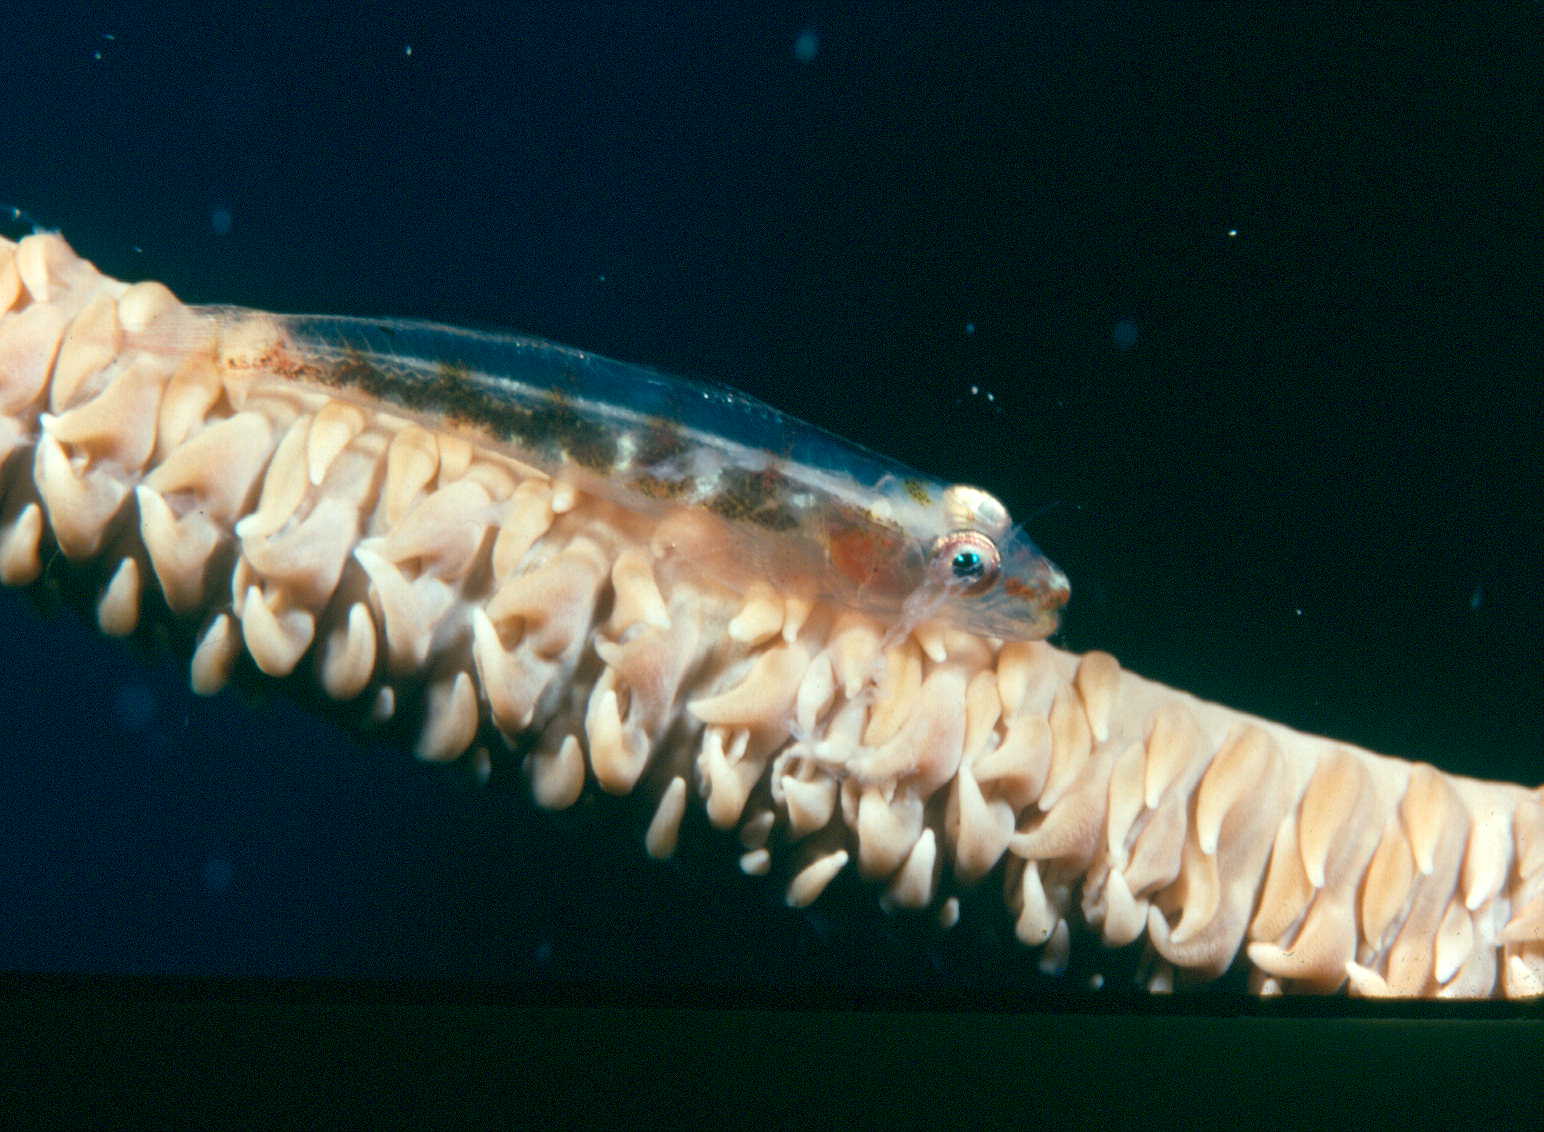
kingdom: Animalia
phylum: Chordata
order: Perciformes
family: Gobiidae
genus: Bryaninops
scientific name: Bryaninops yongei
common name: Whip coral goby
